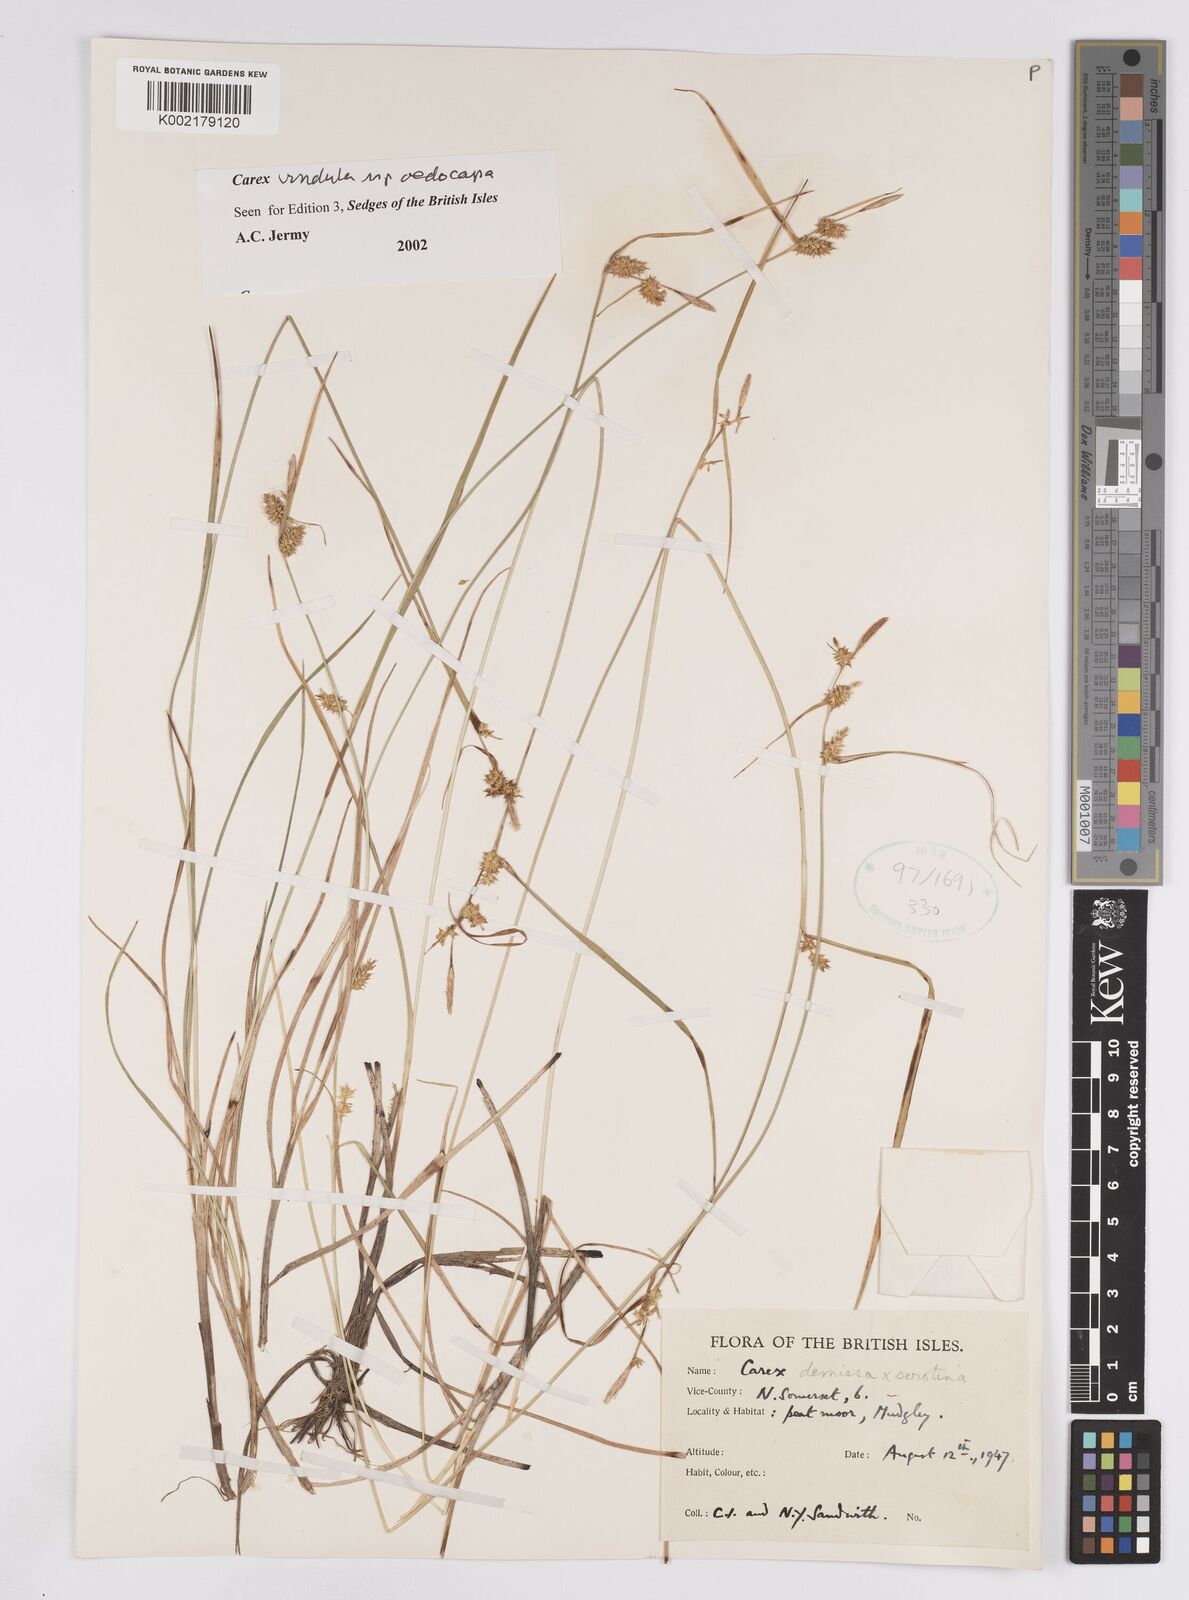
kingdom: Plantae
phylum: Tracheophyta
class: Liliopsida
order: Poales
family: Cyperaceae
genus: Carex
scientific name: Carex demissa
